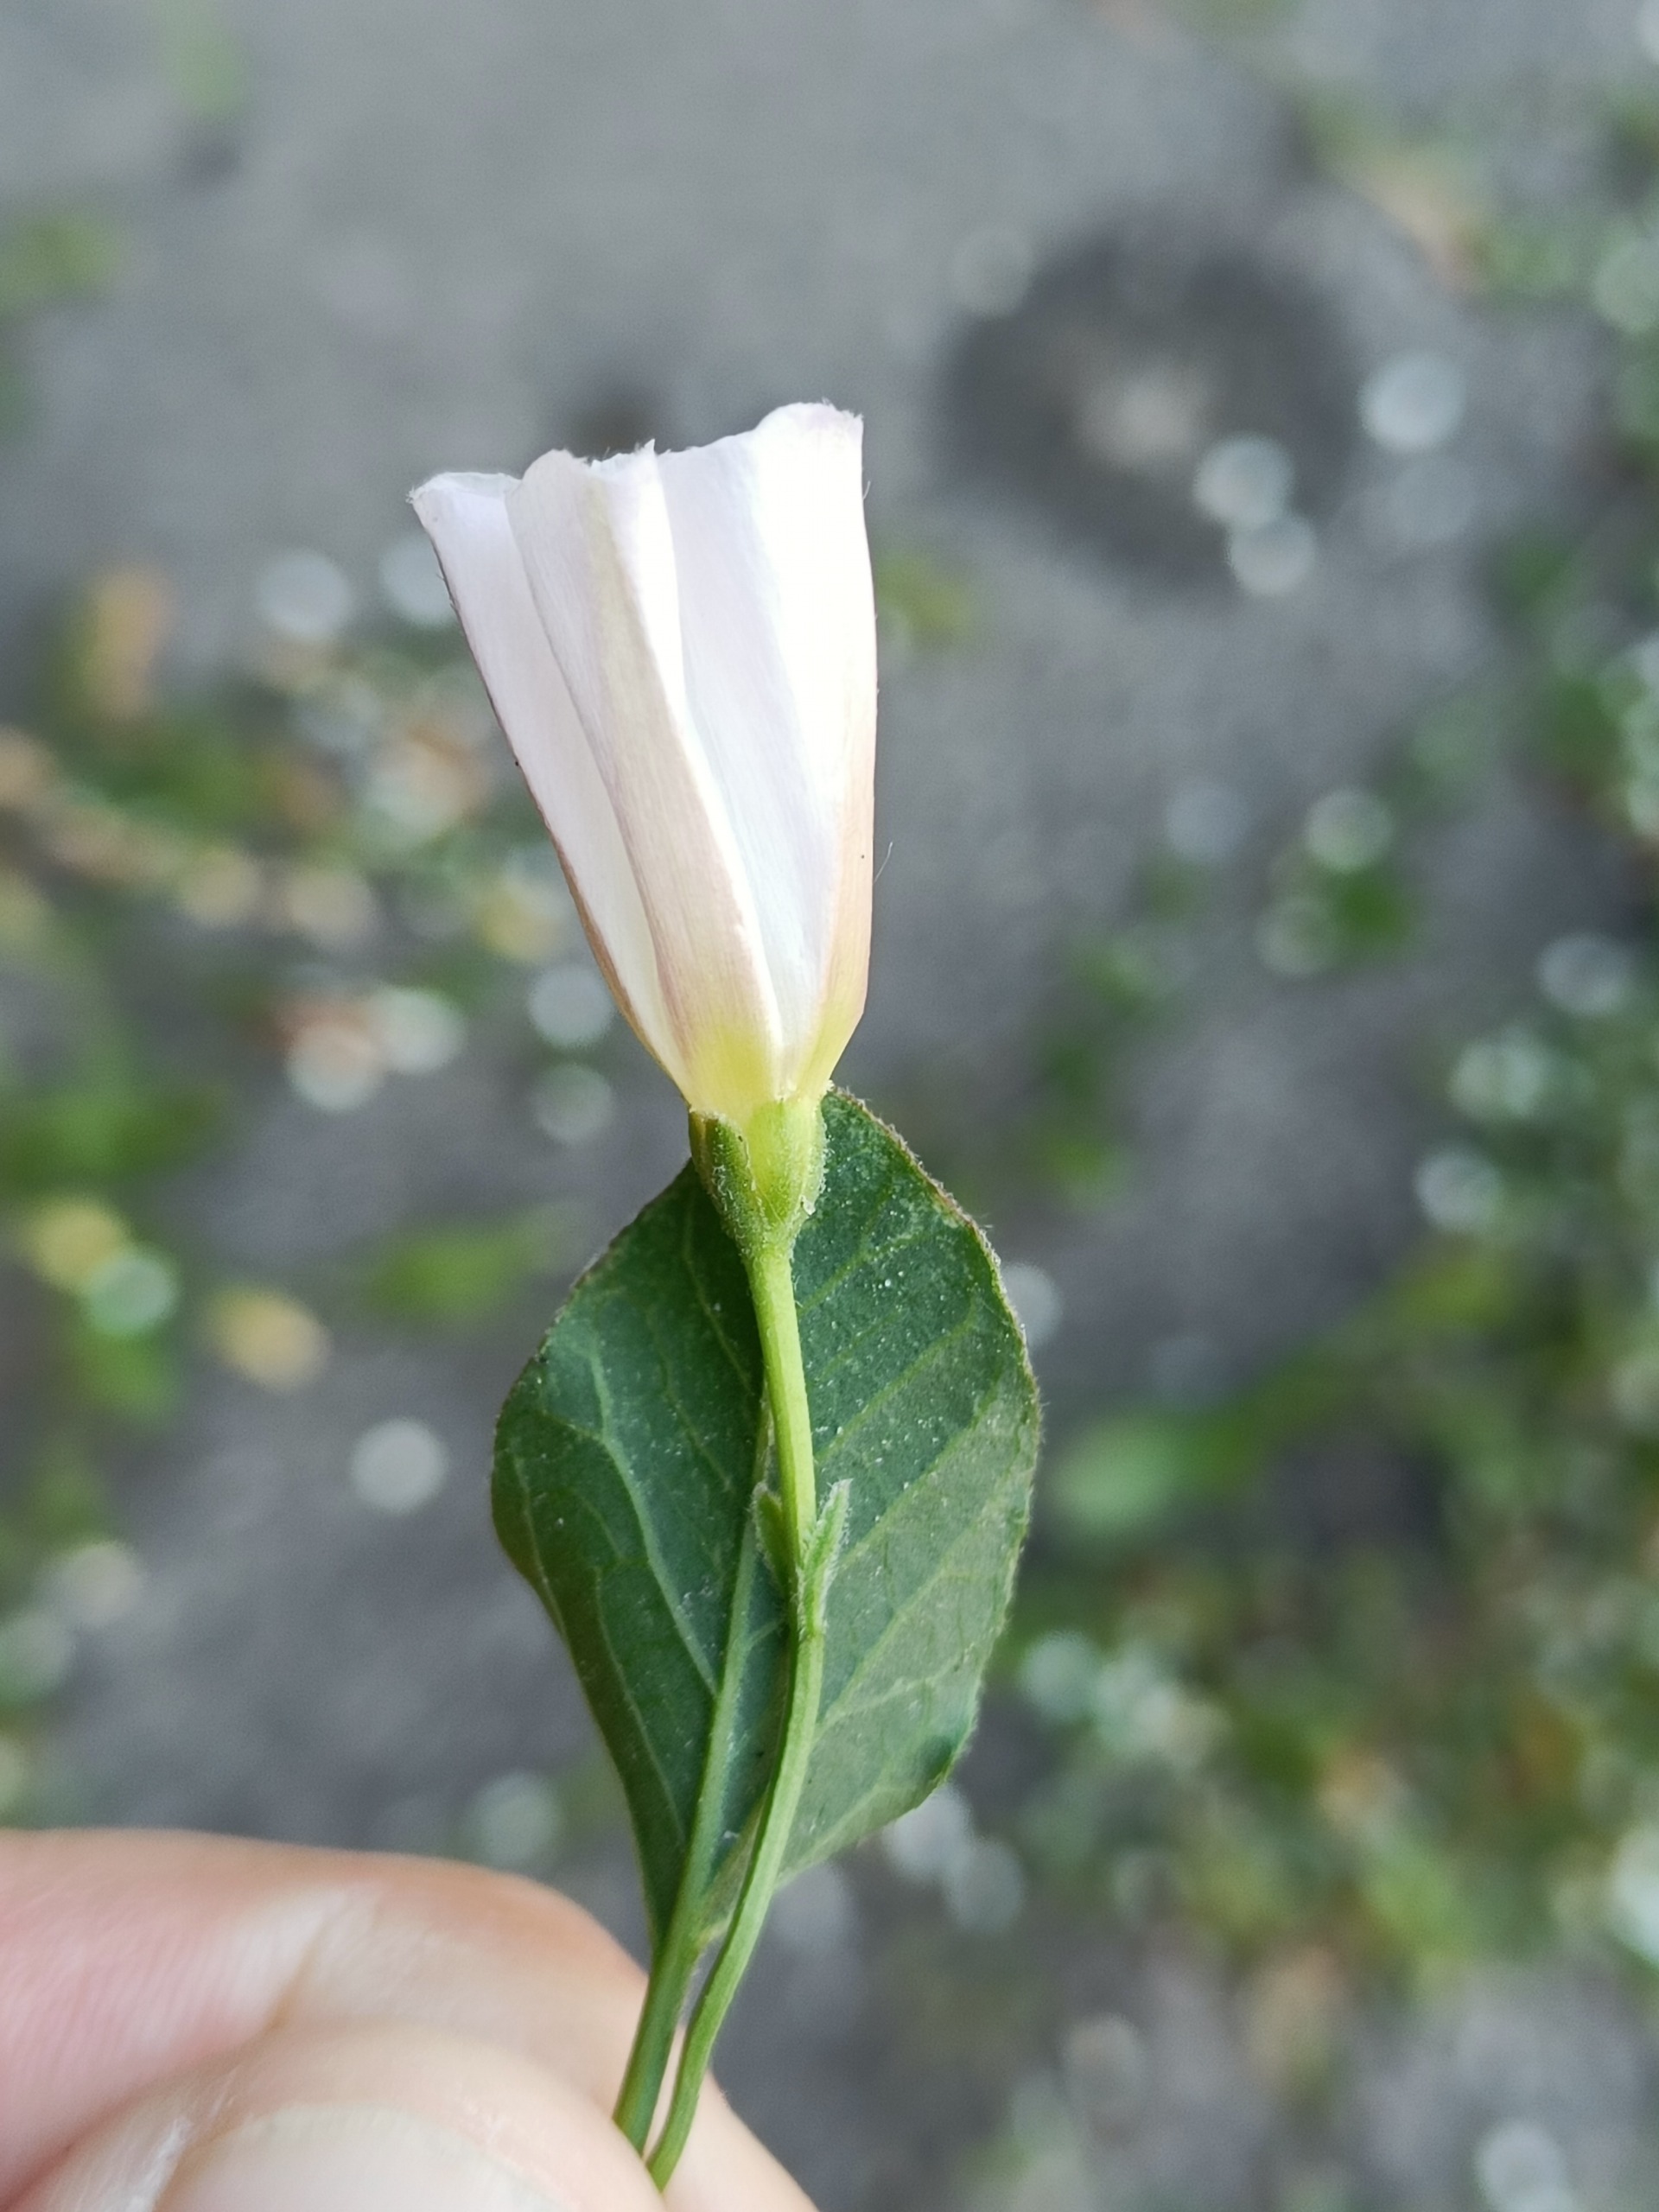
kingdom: Plantae
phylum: Tracheophyta
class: Magnoliopsida
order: Solanales
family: Convolvulaceae
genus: Convolvulus
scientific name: Convolvulus arvensis
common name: Ager-snerle
